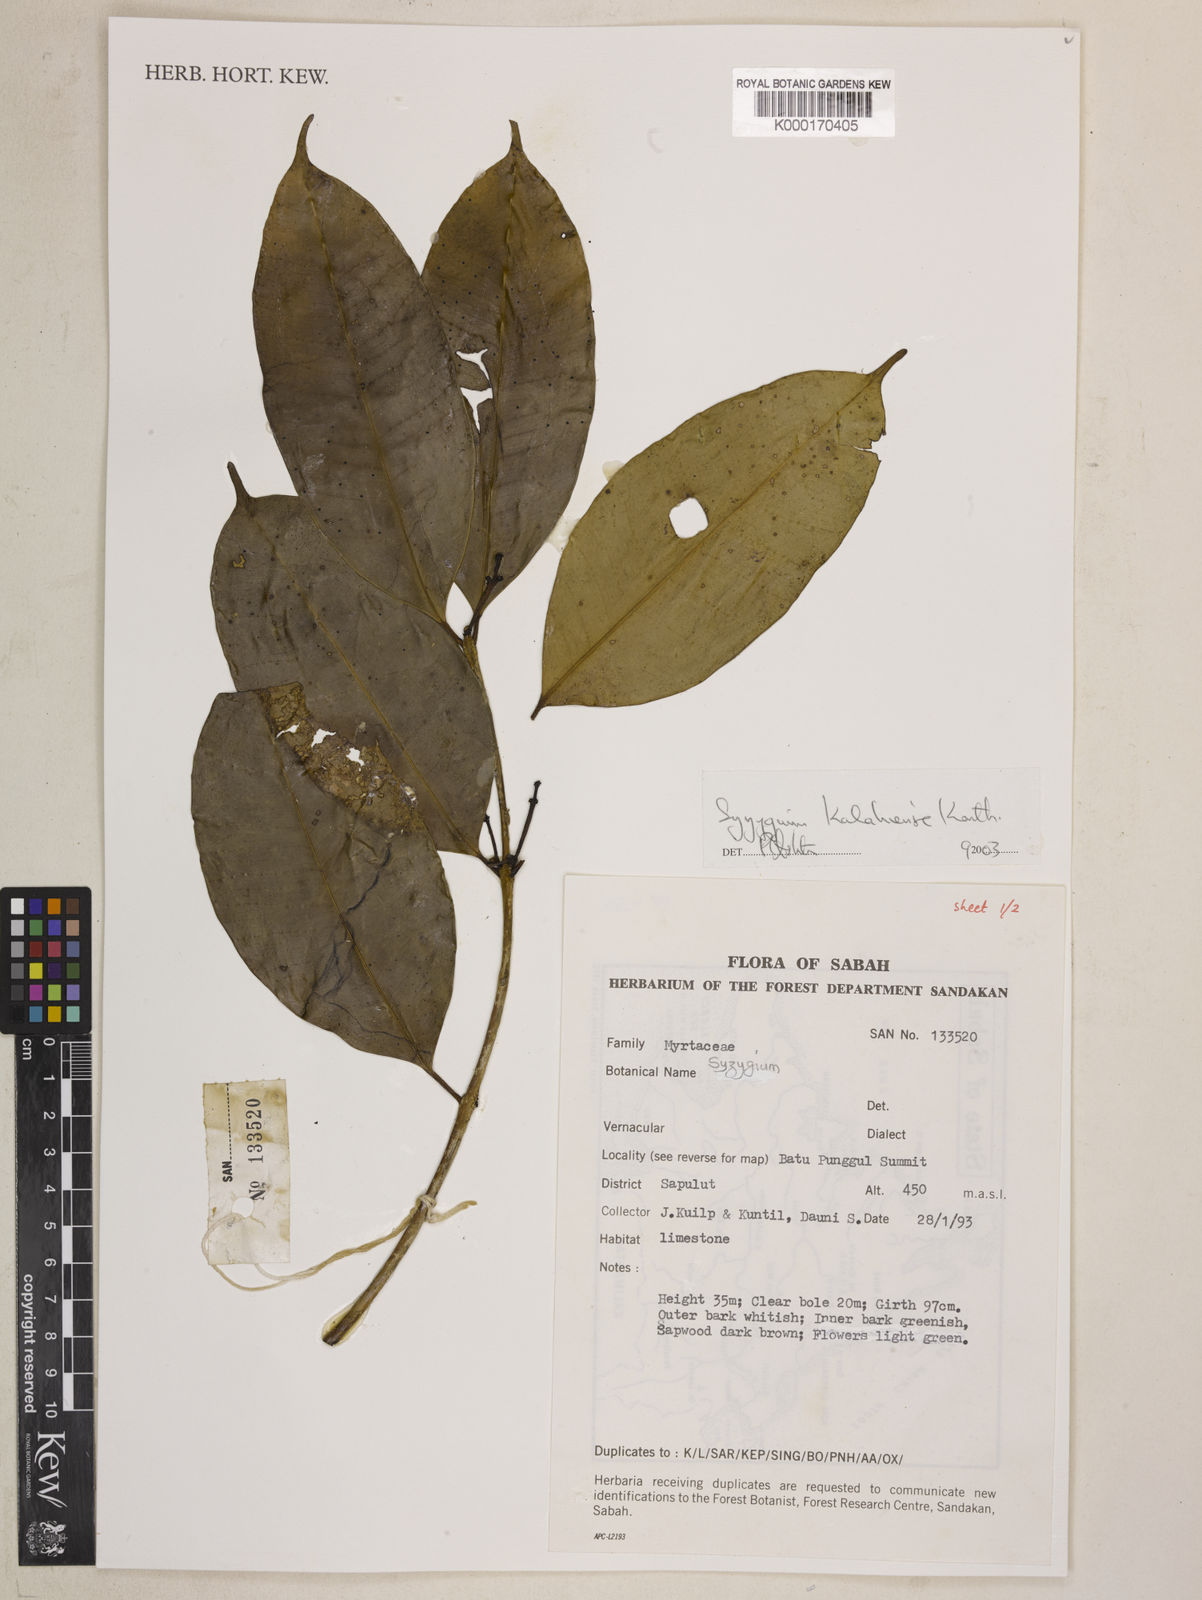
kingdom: Plantae
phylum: Tracheophyta
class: Magnoliopsida
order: Myrtales
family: Myrtaceae
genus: Syzygium
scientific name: Syzygium kalahiense
